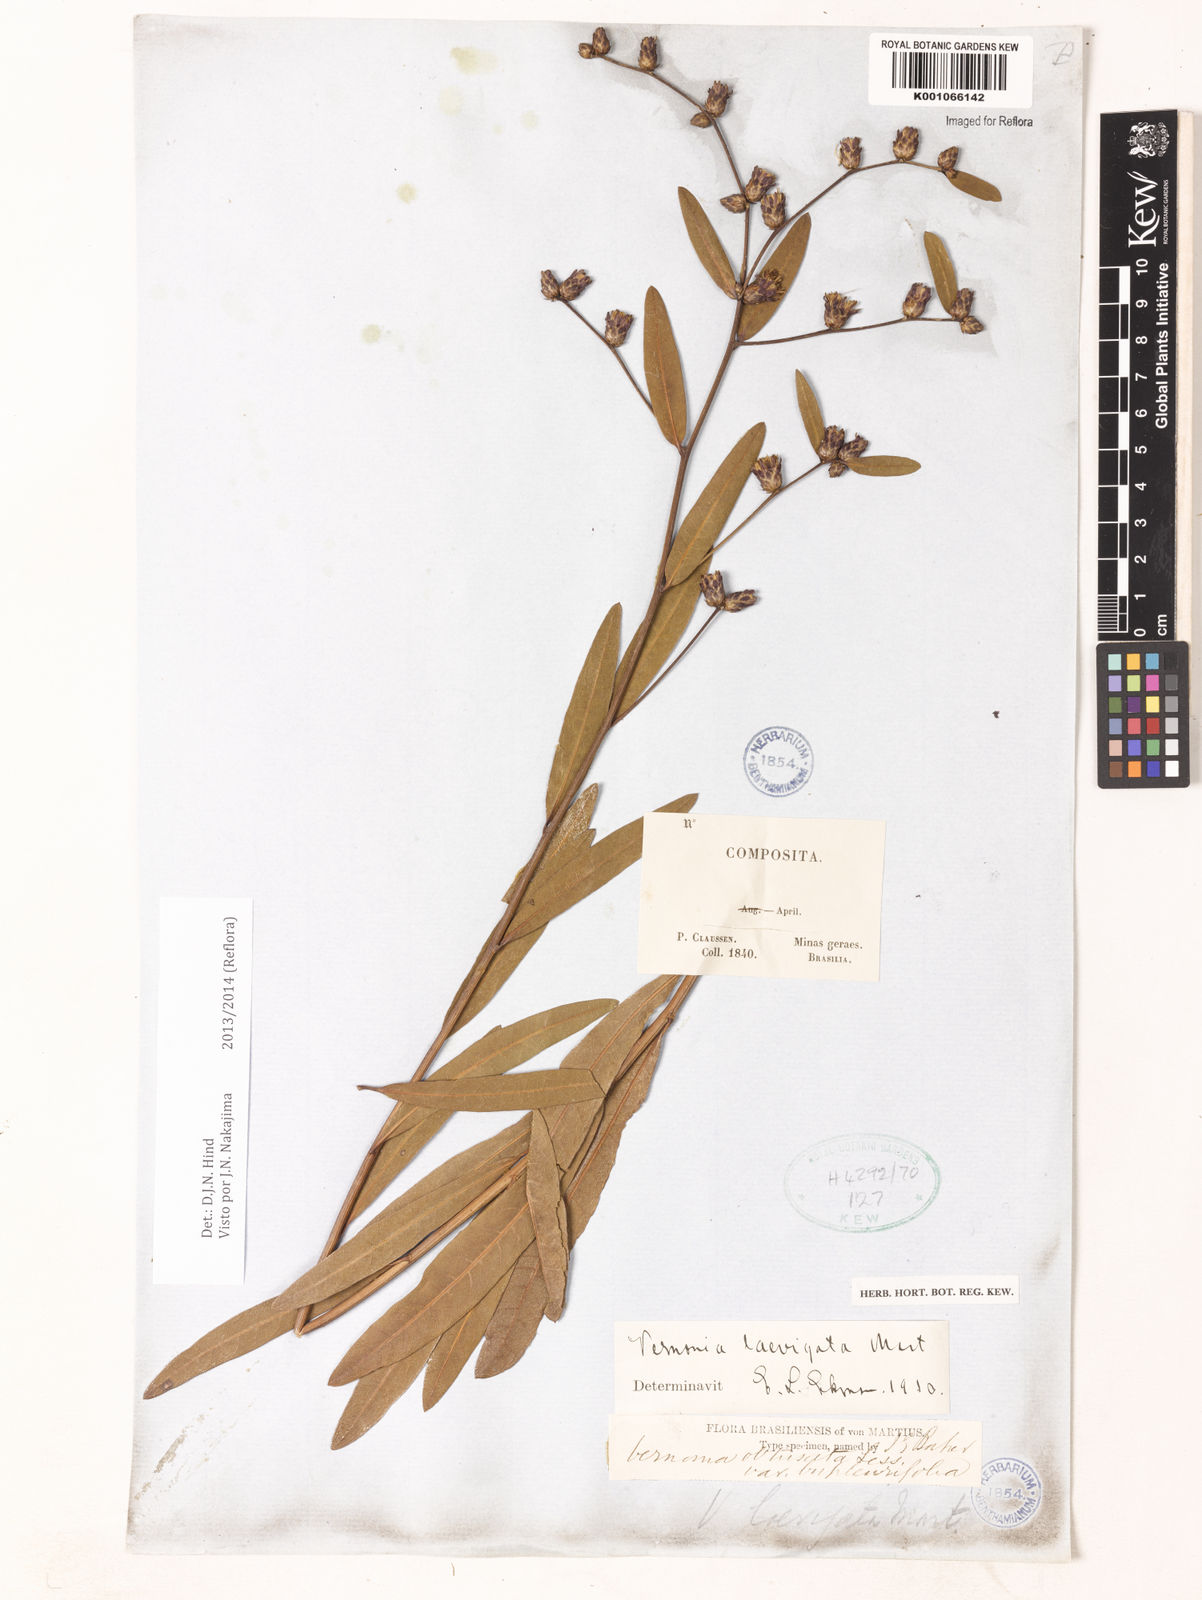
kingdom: Plantae
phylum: Tracheophyta
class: Magnoliopsida
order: Asterales
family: Asteraceae
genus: Lessingianthus
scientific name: Lessingianthus laevigatus
